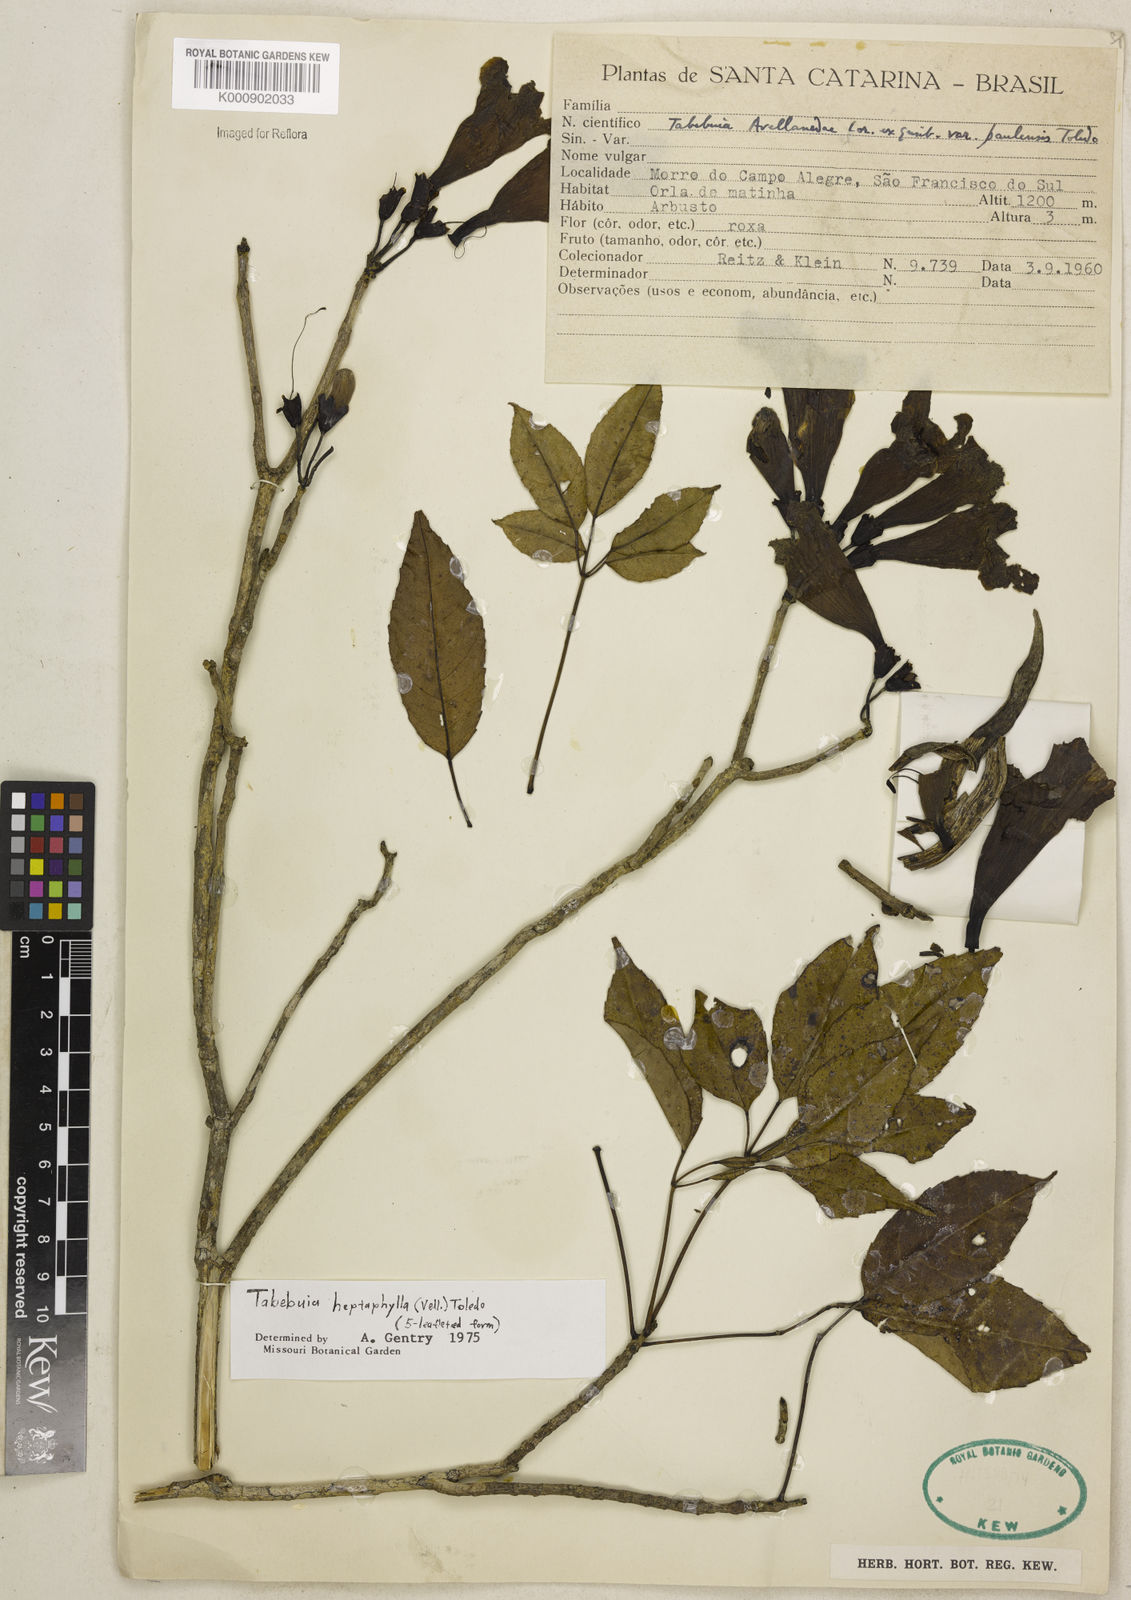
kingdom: Plantae
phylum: Tracheophyta
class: Magnoliopsida
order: Lamiales
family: Bignoniaceae
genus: Handroanthus
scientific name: Handroanthus heptaphyllus
